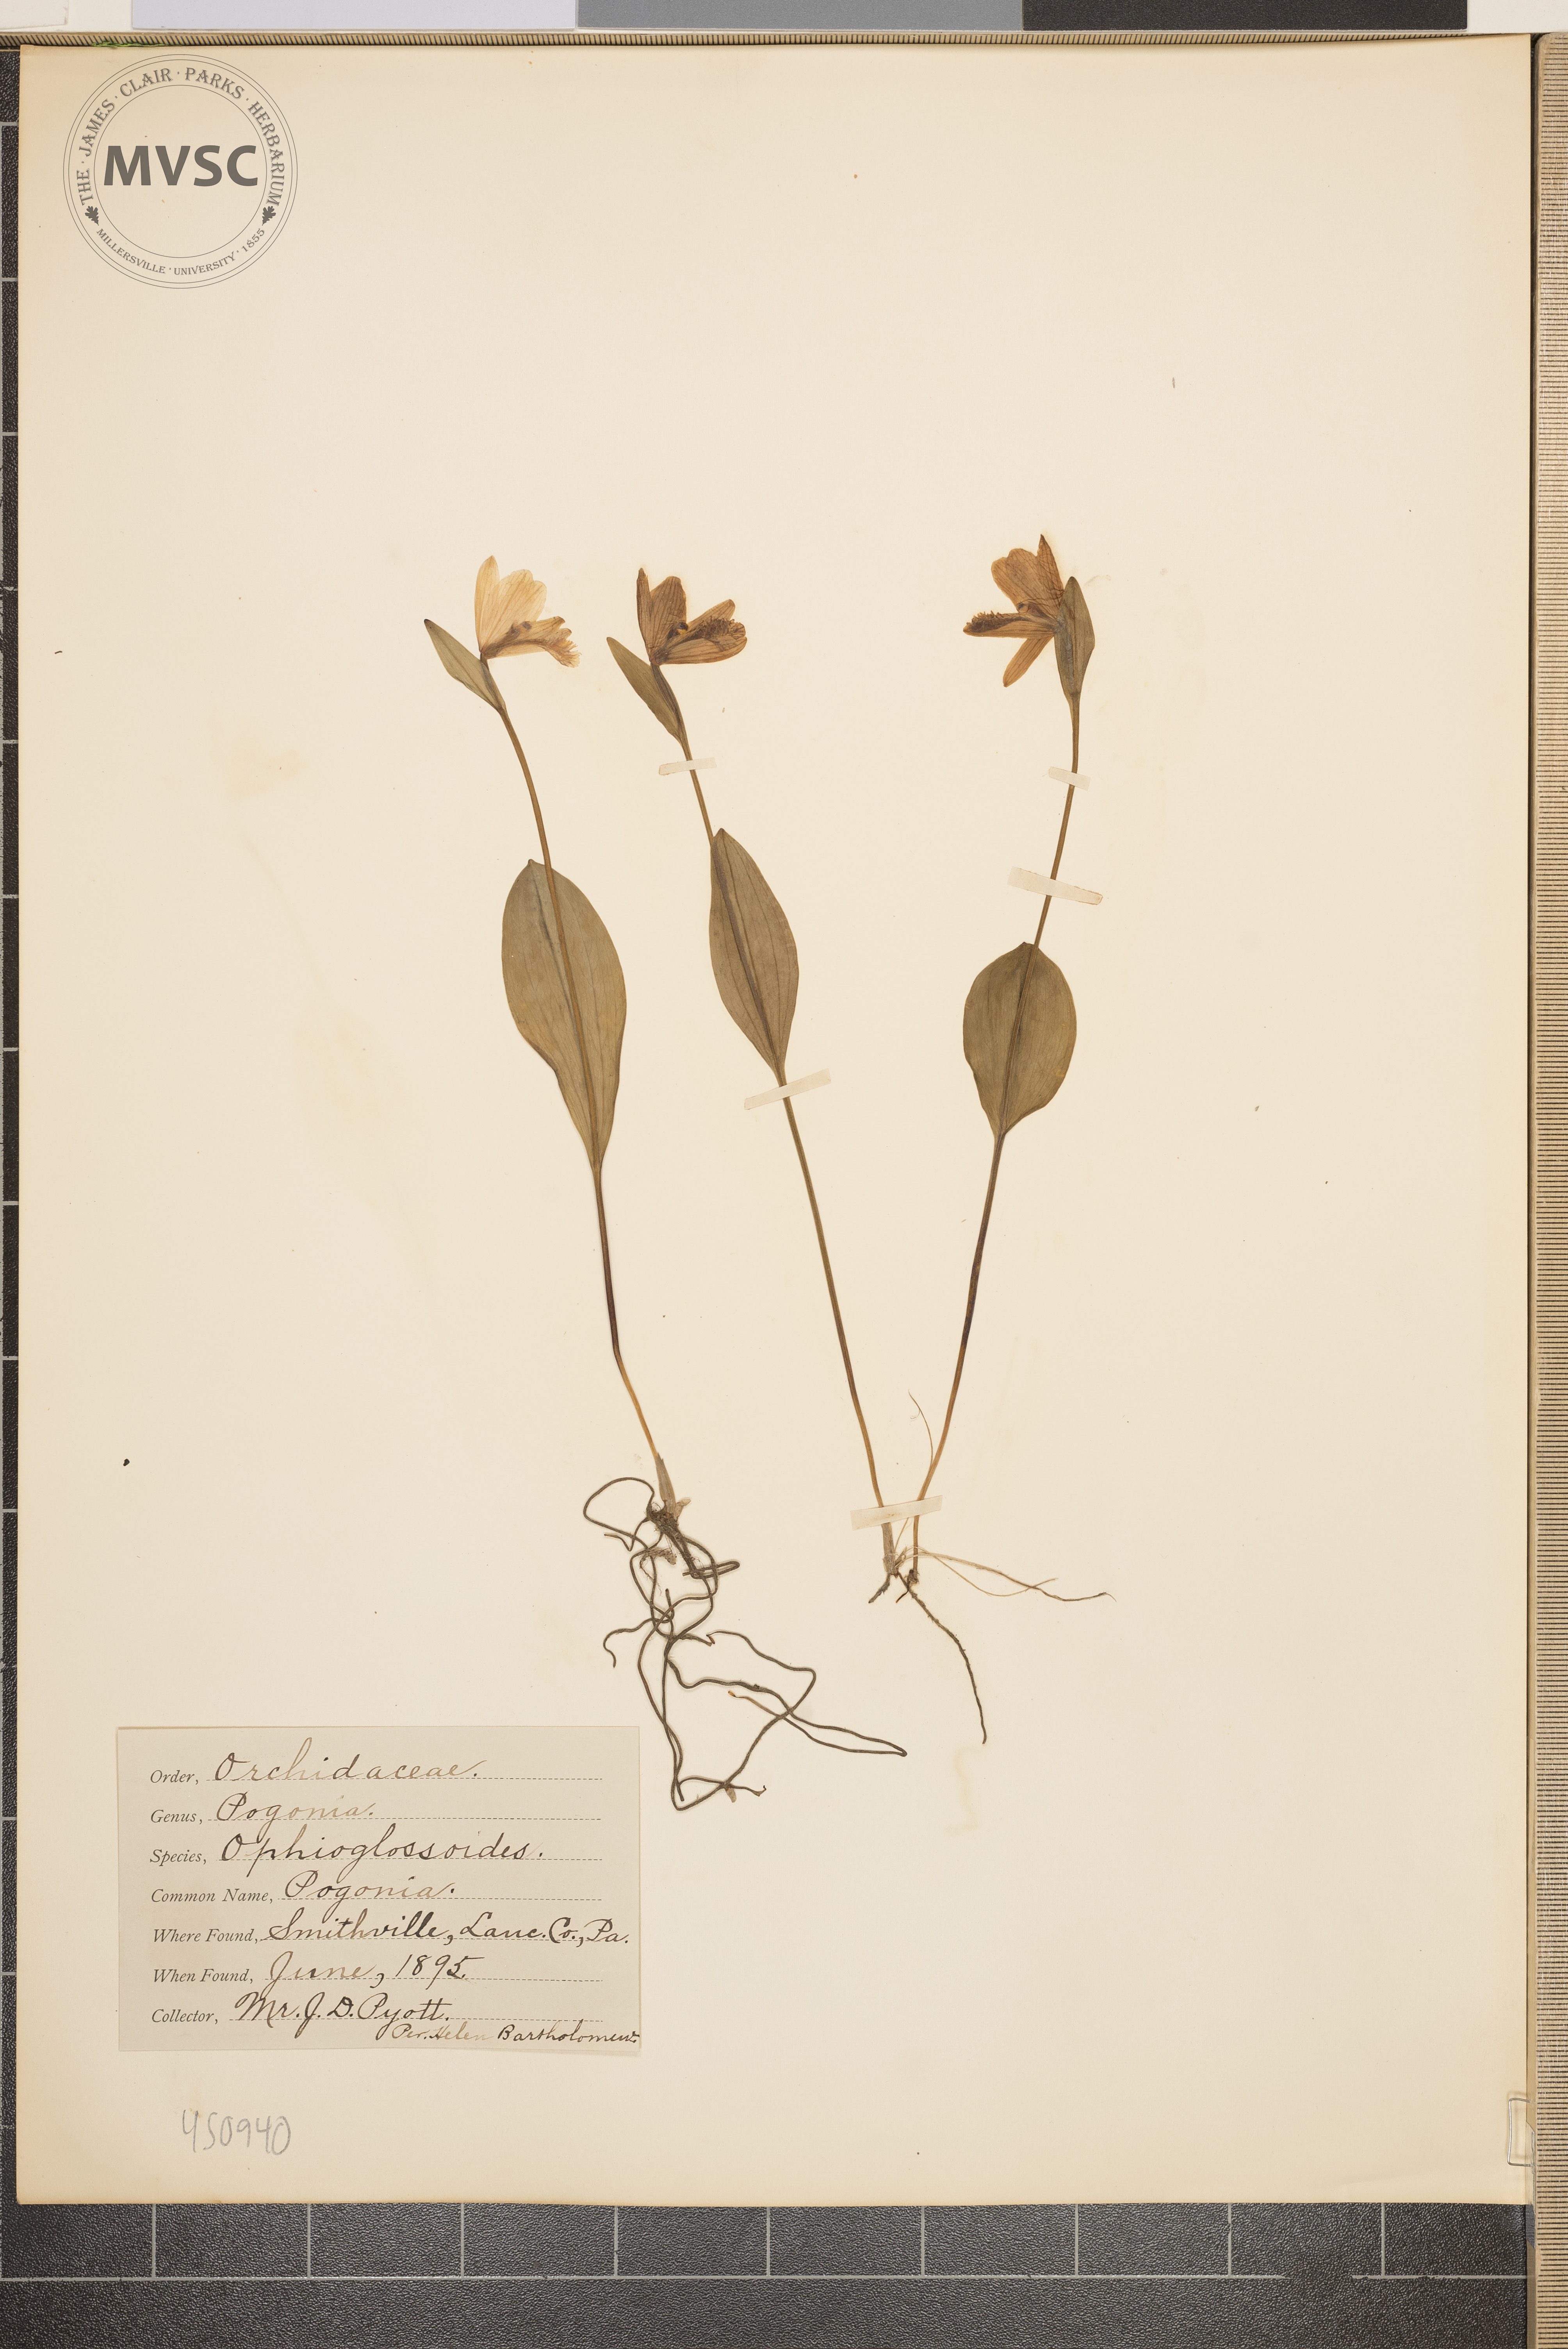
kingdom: Plantae
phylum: Tracheophyta
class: Liliopsida
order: Asparagales
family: Orchidaceae
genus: Pogonia
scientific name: Pogonia ophioglossoides
